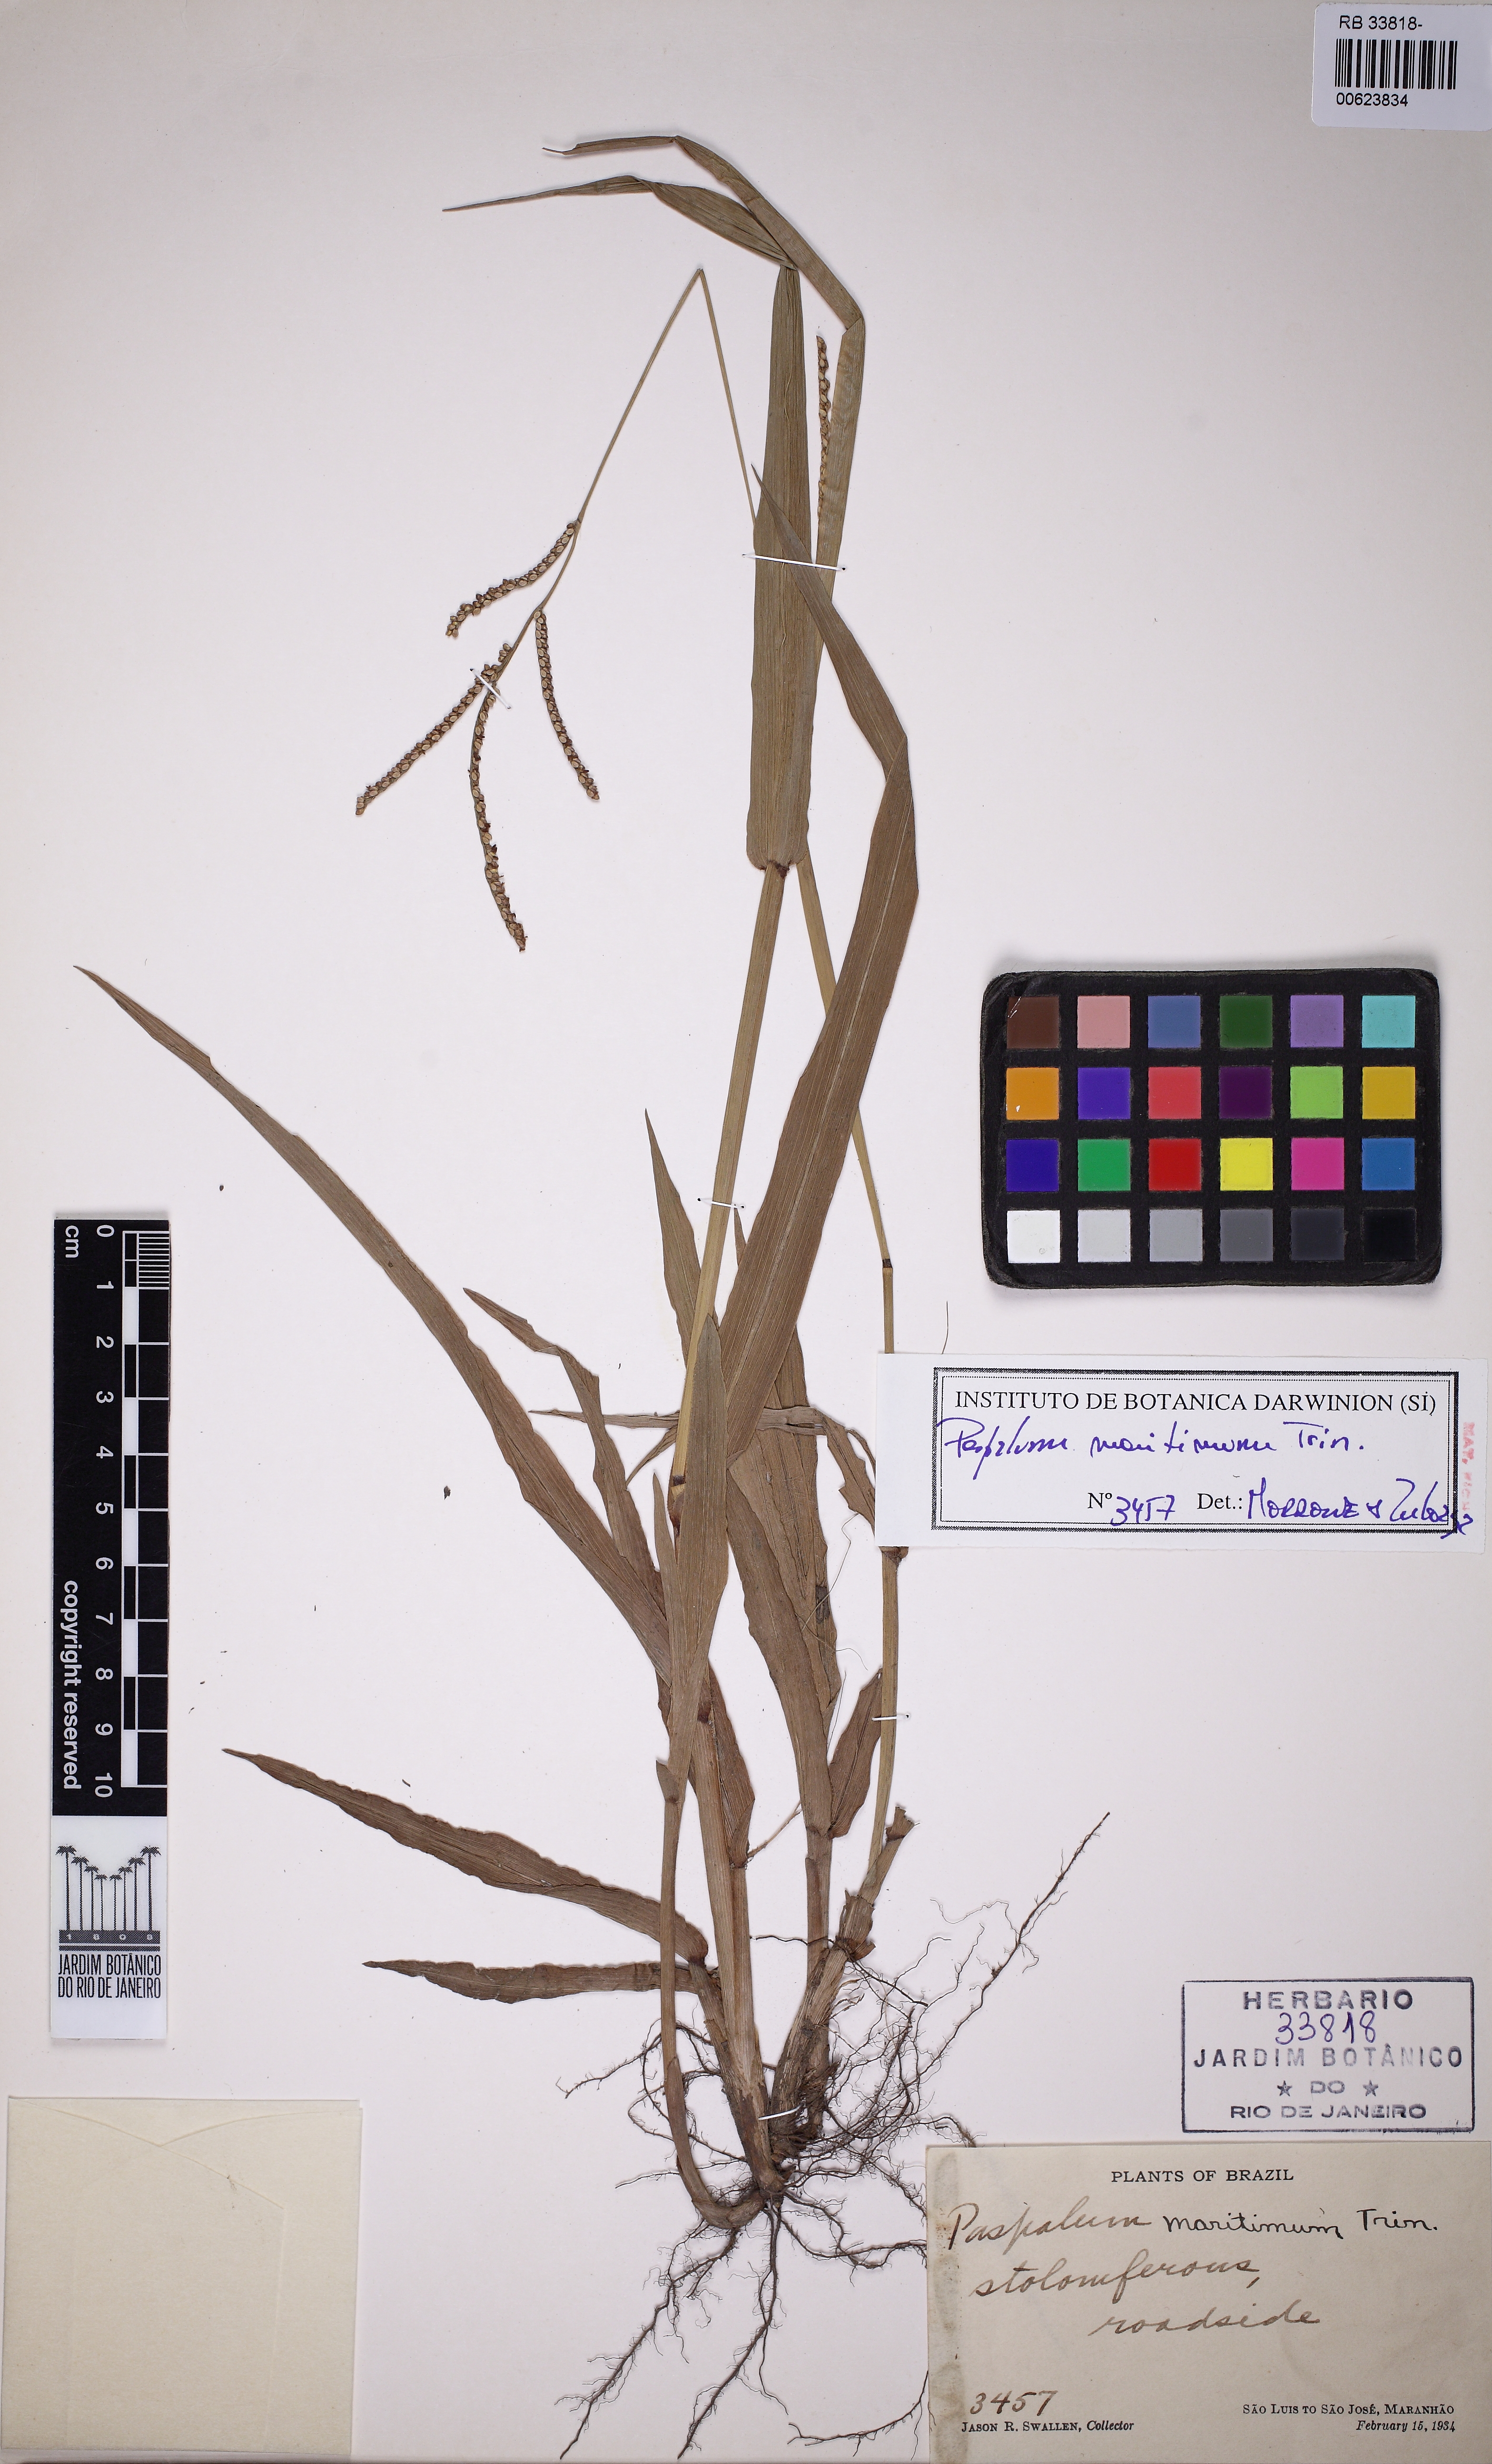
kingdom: Plantae
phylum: Tracheophyta
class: Liliopsida
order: Poales
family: Poaceae
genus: Paspalum
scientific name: Paspalum maritimum
